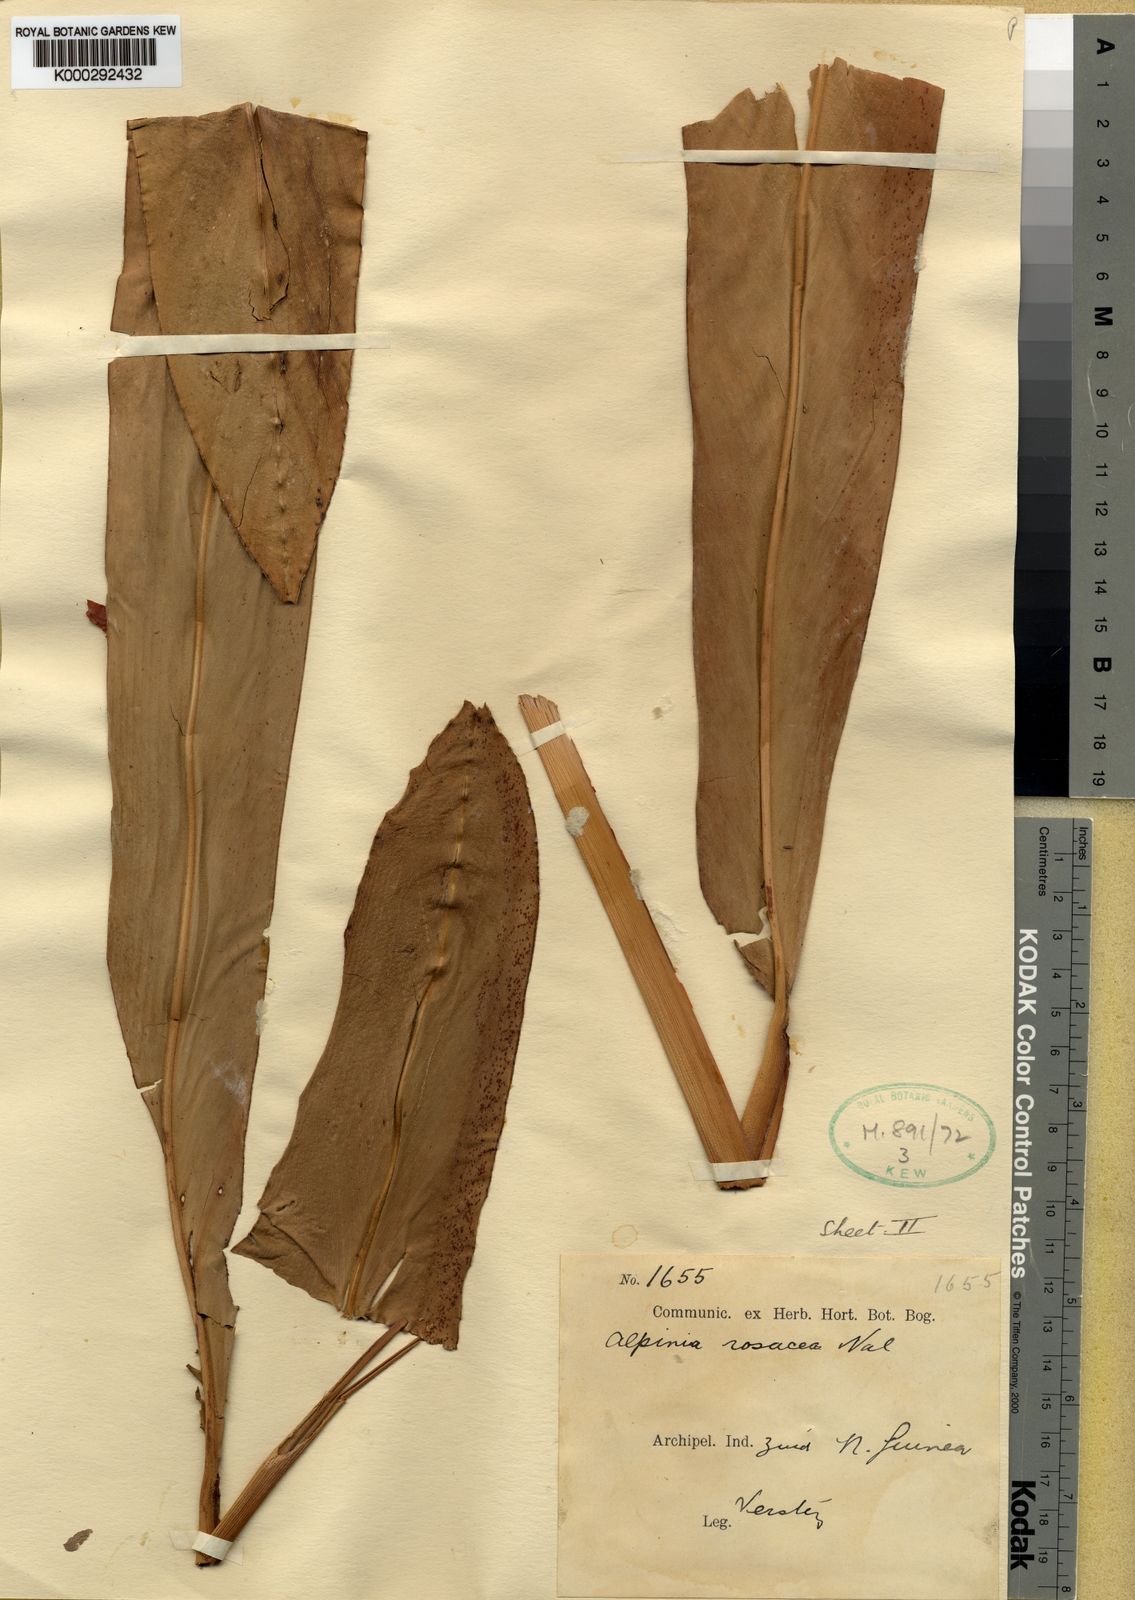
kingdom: Plantae
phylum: Tracheophyta
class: Liliopsida
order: Zingiberales
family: Zingiberaceae
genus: Alpinia
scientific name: Alpinia rosacea
